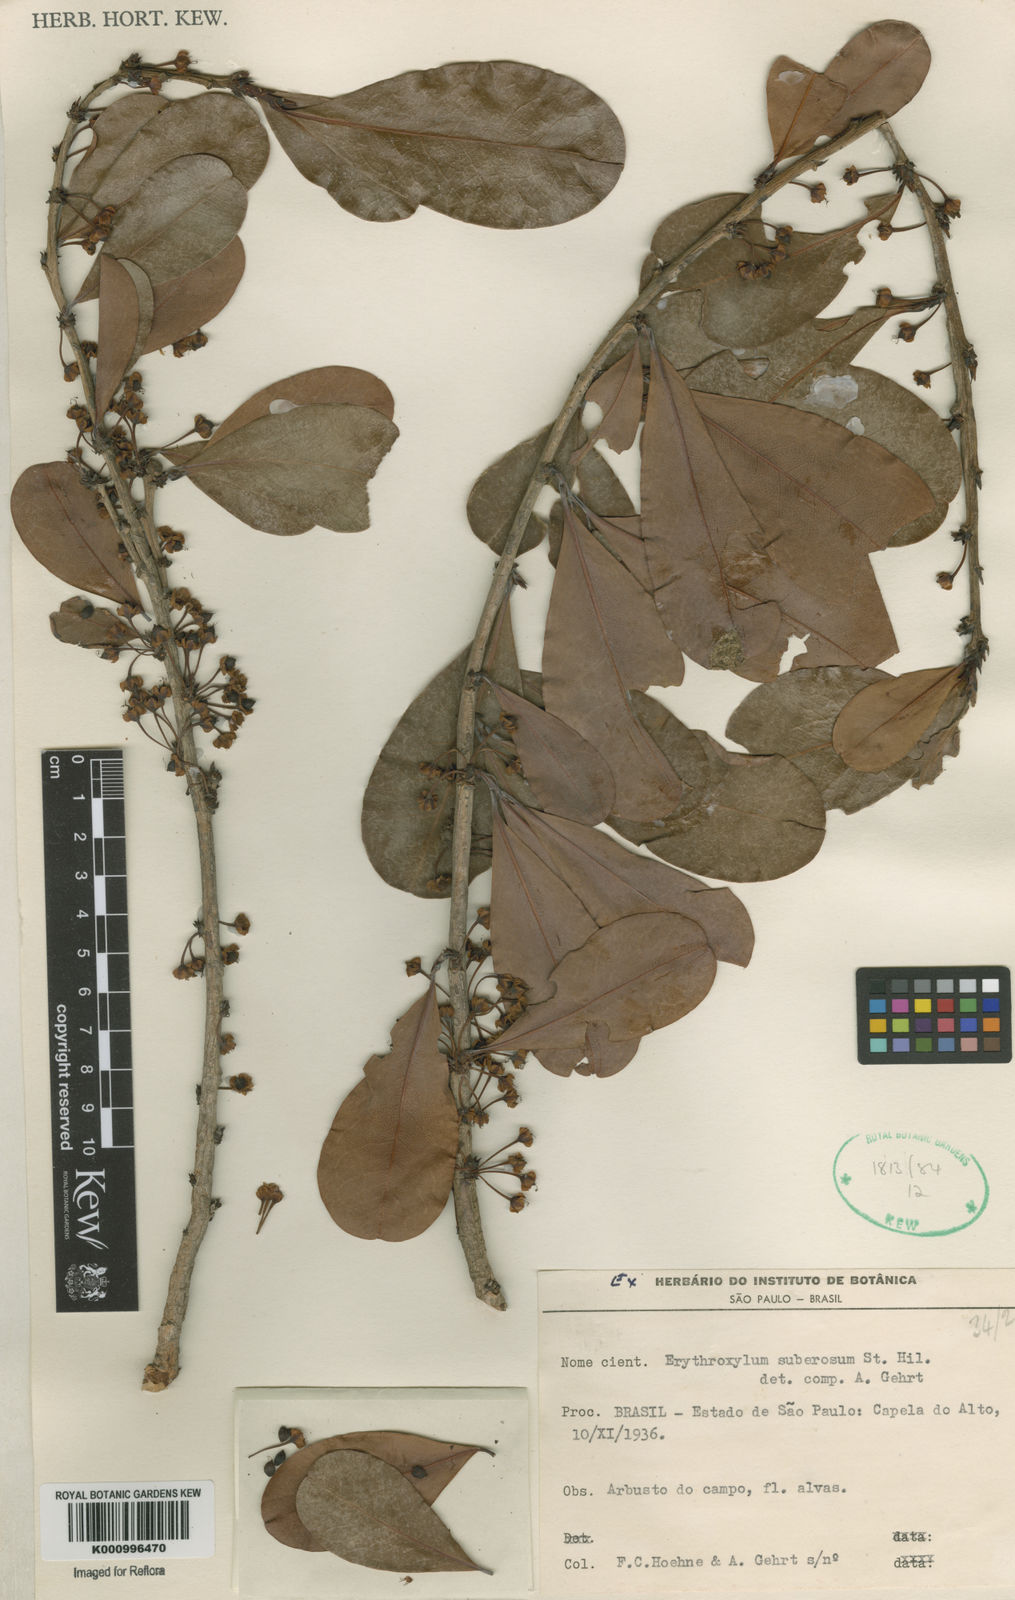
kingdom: Plantae
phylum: Tracheophyta
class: Magnoliopsida
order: Malpighiales
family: Erythroxylaceae
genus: Erythroxylum
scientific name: Erythroxylum suberosum
